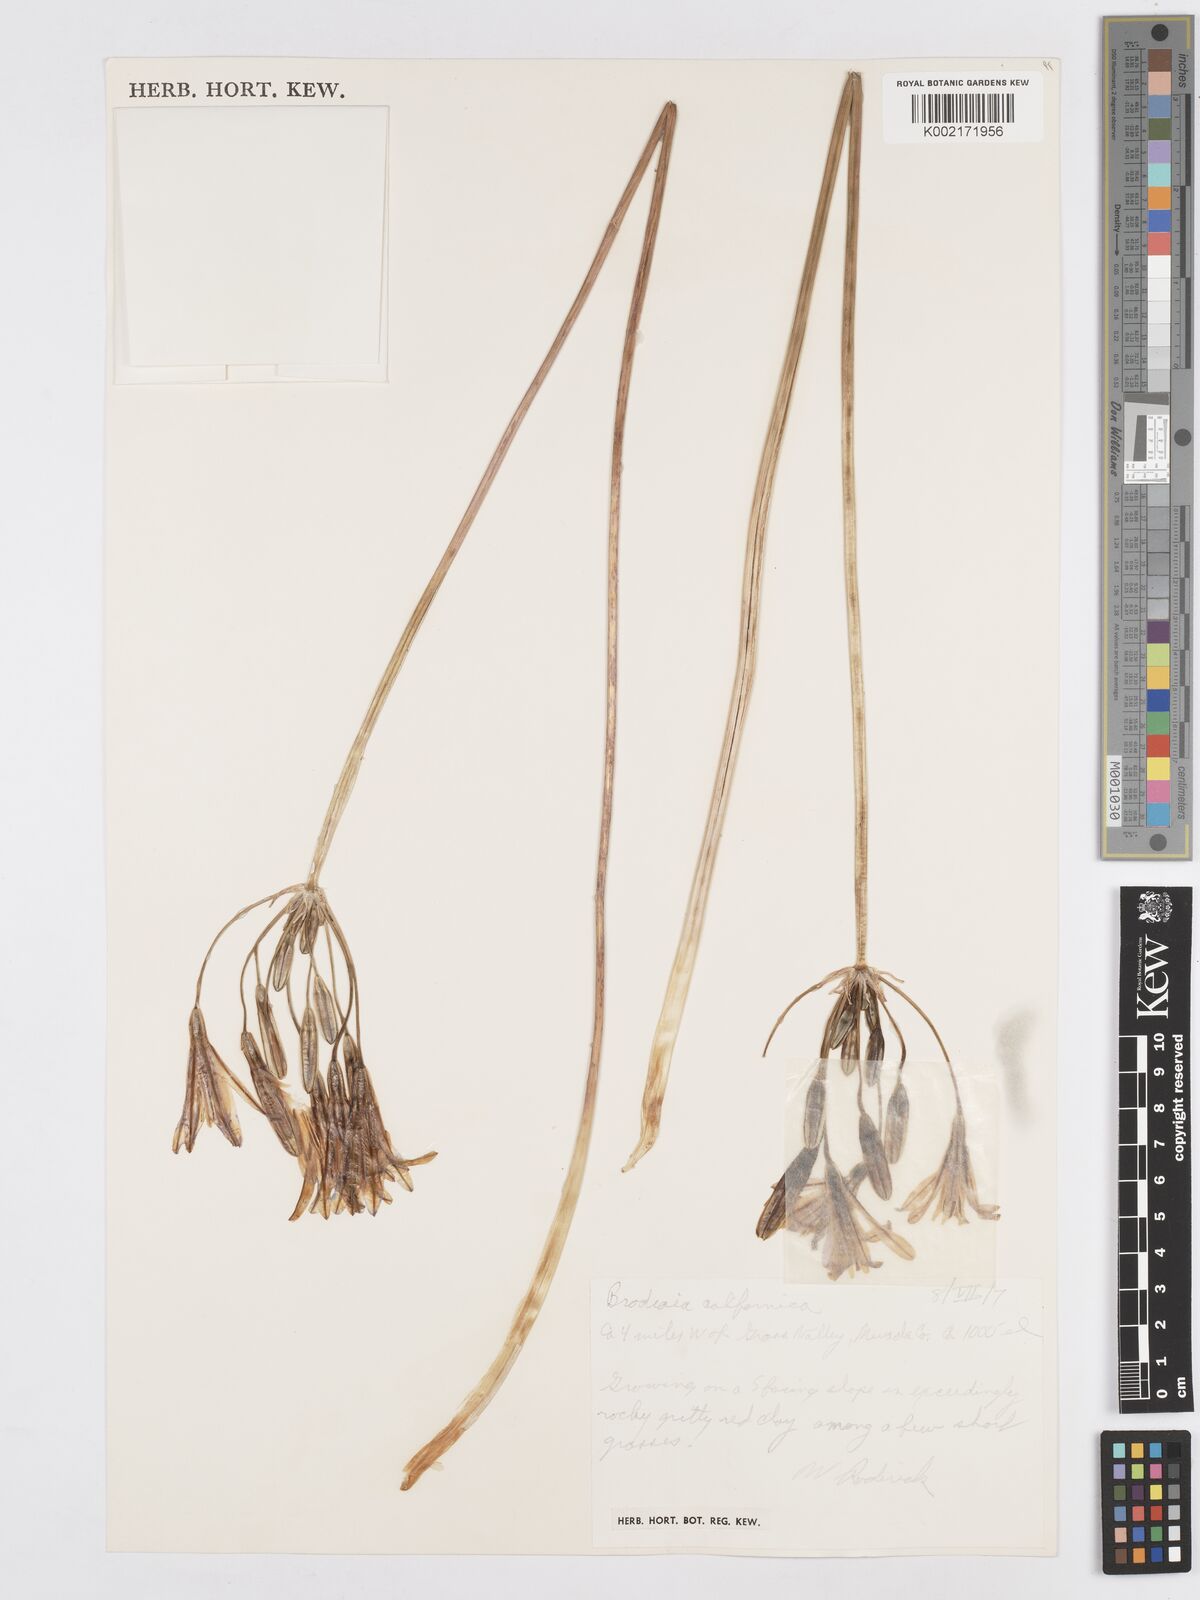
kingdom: Plantae
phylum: Tracheophyta
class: Liliopsida
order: Asparagales
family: Asparagaceae
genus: Brodiaea
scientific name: Brodiaea californica
